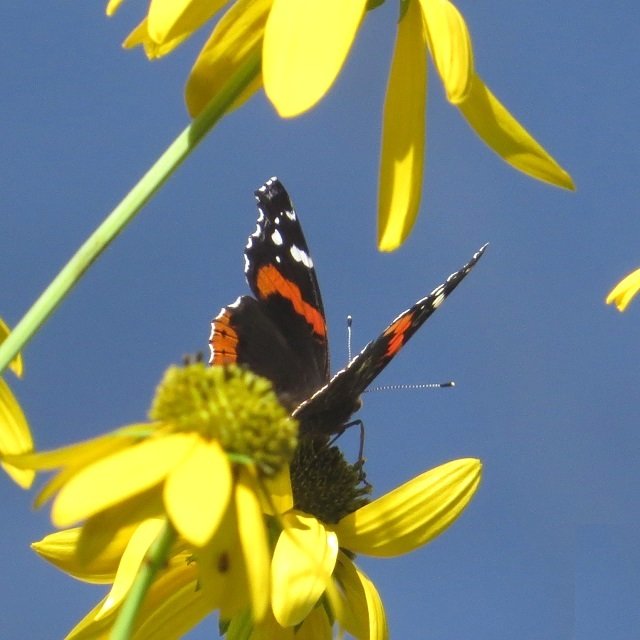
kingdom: Animalia
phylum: Arthropoda
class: Insecta
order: Lepidoptera
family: Nymphalidae
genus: Vanessa
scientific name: Vanessa atalanta
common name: Red Admiral
